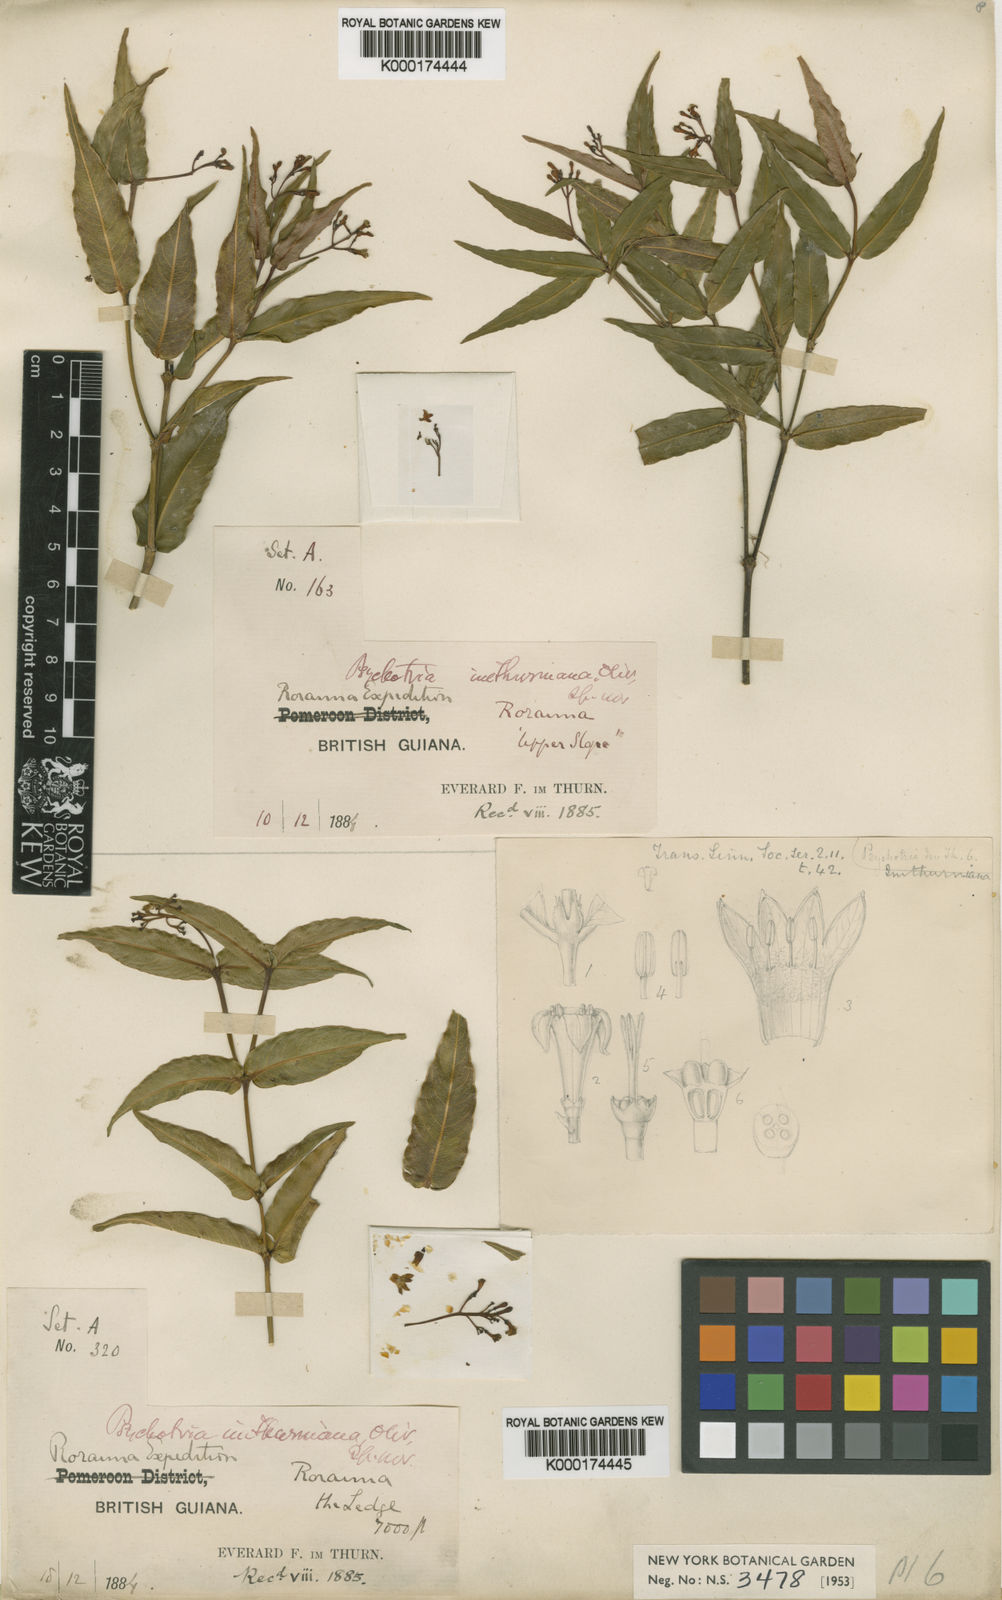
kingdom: Plantae
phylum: Tracheophyta
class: Magnoliopsida
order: Gentianales
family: Rubiaceae
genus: Palicourea
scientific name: Palicourea imthurniana
